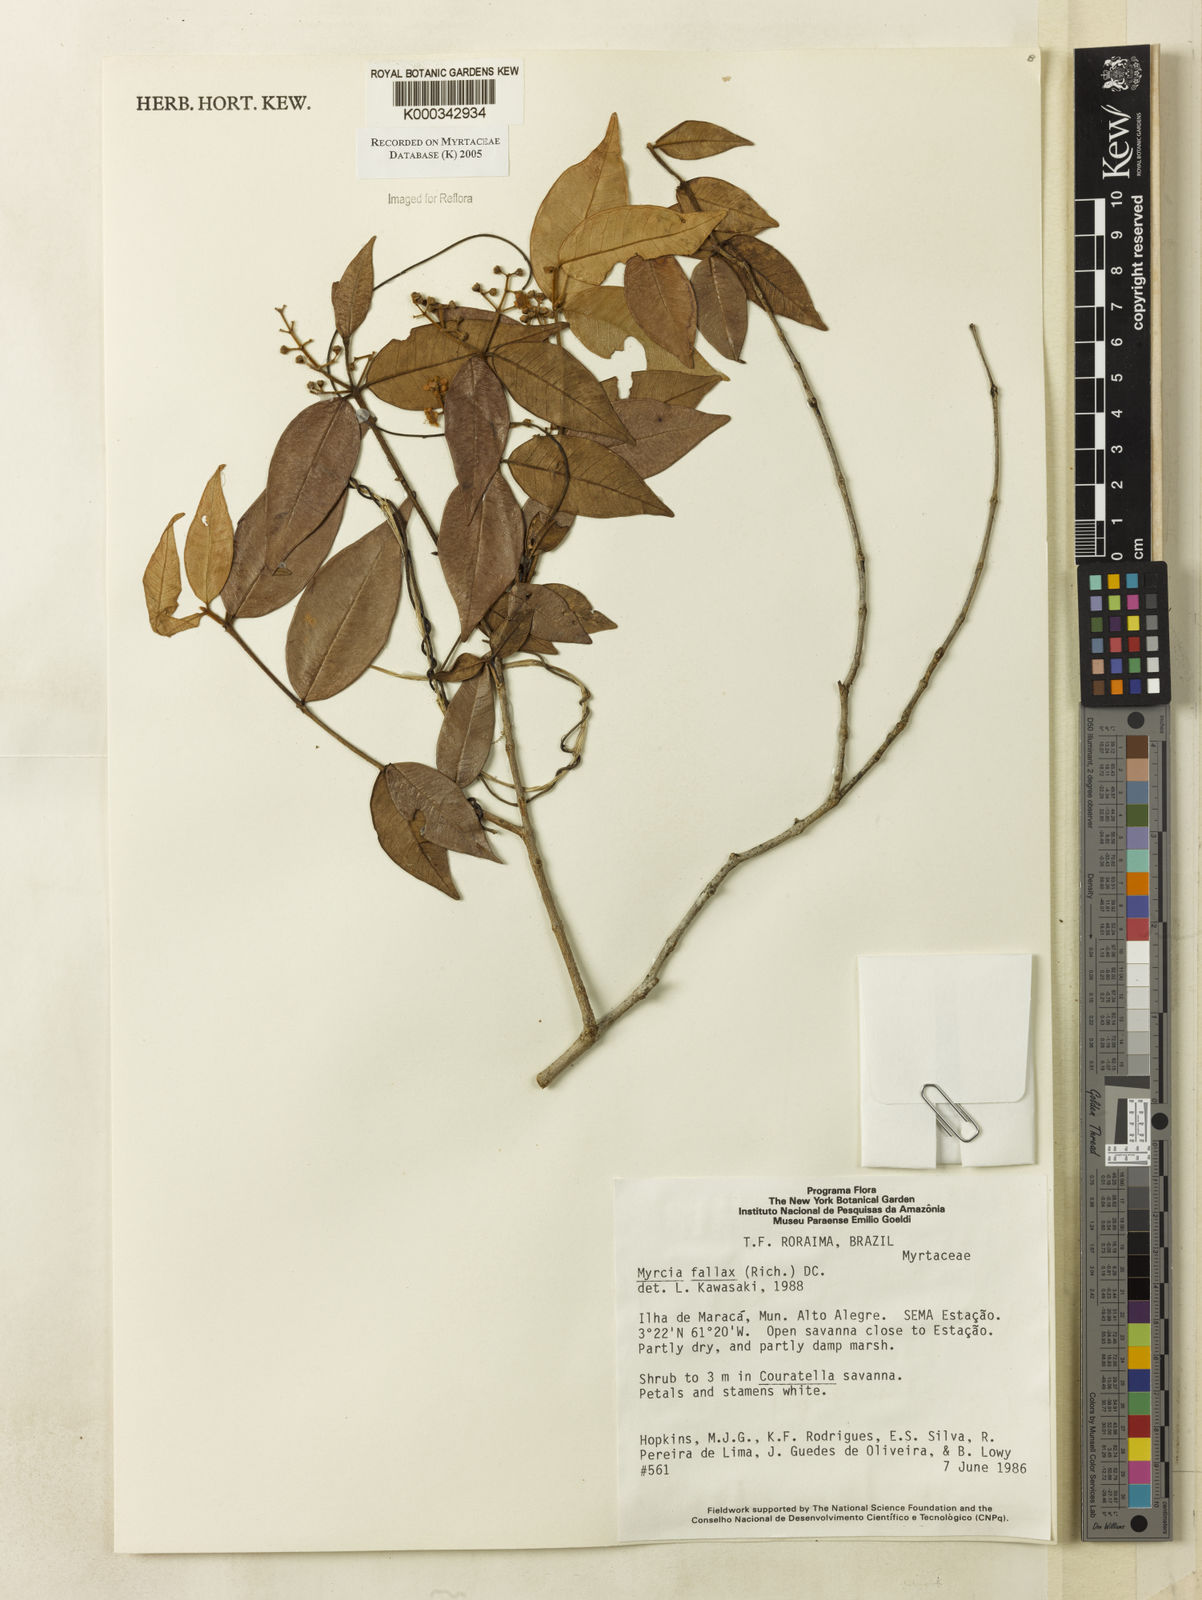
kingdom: Plantae
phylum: Tracheophyta
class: Magnoliopsida
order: Myrtales
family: Myrtaceae
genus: Myrcia
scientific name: Myrcia splendens
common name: Surinam cherry
